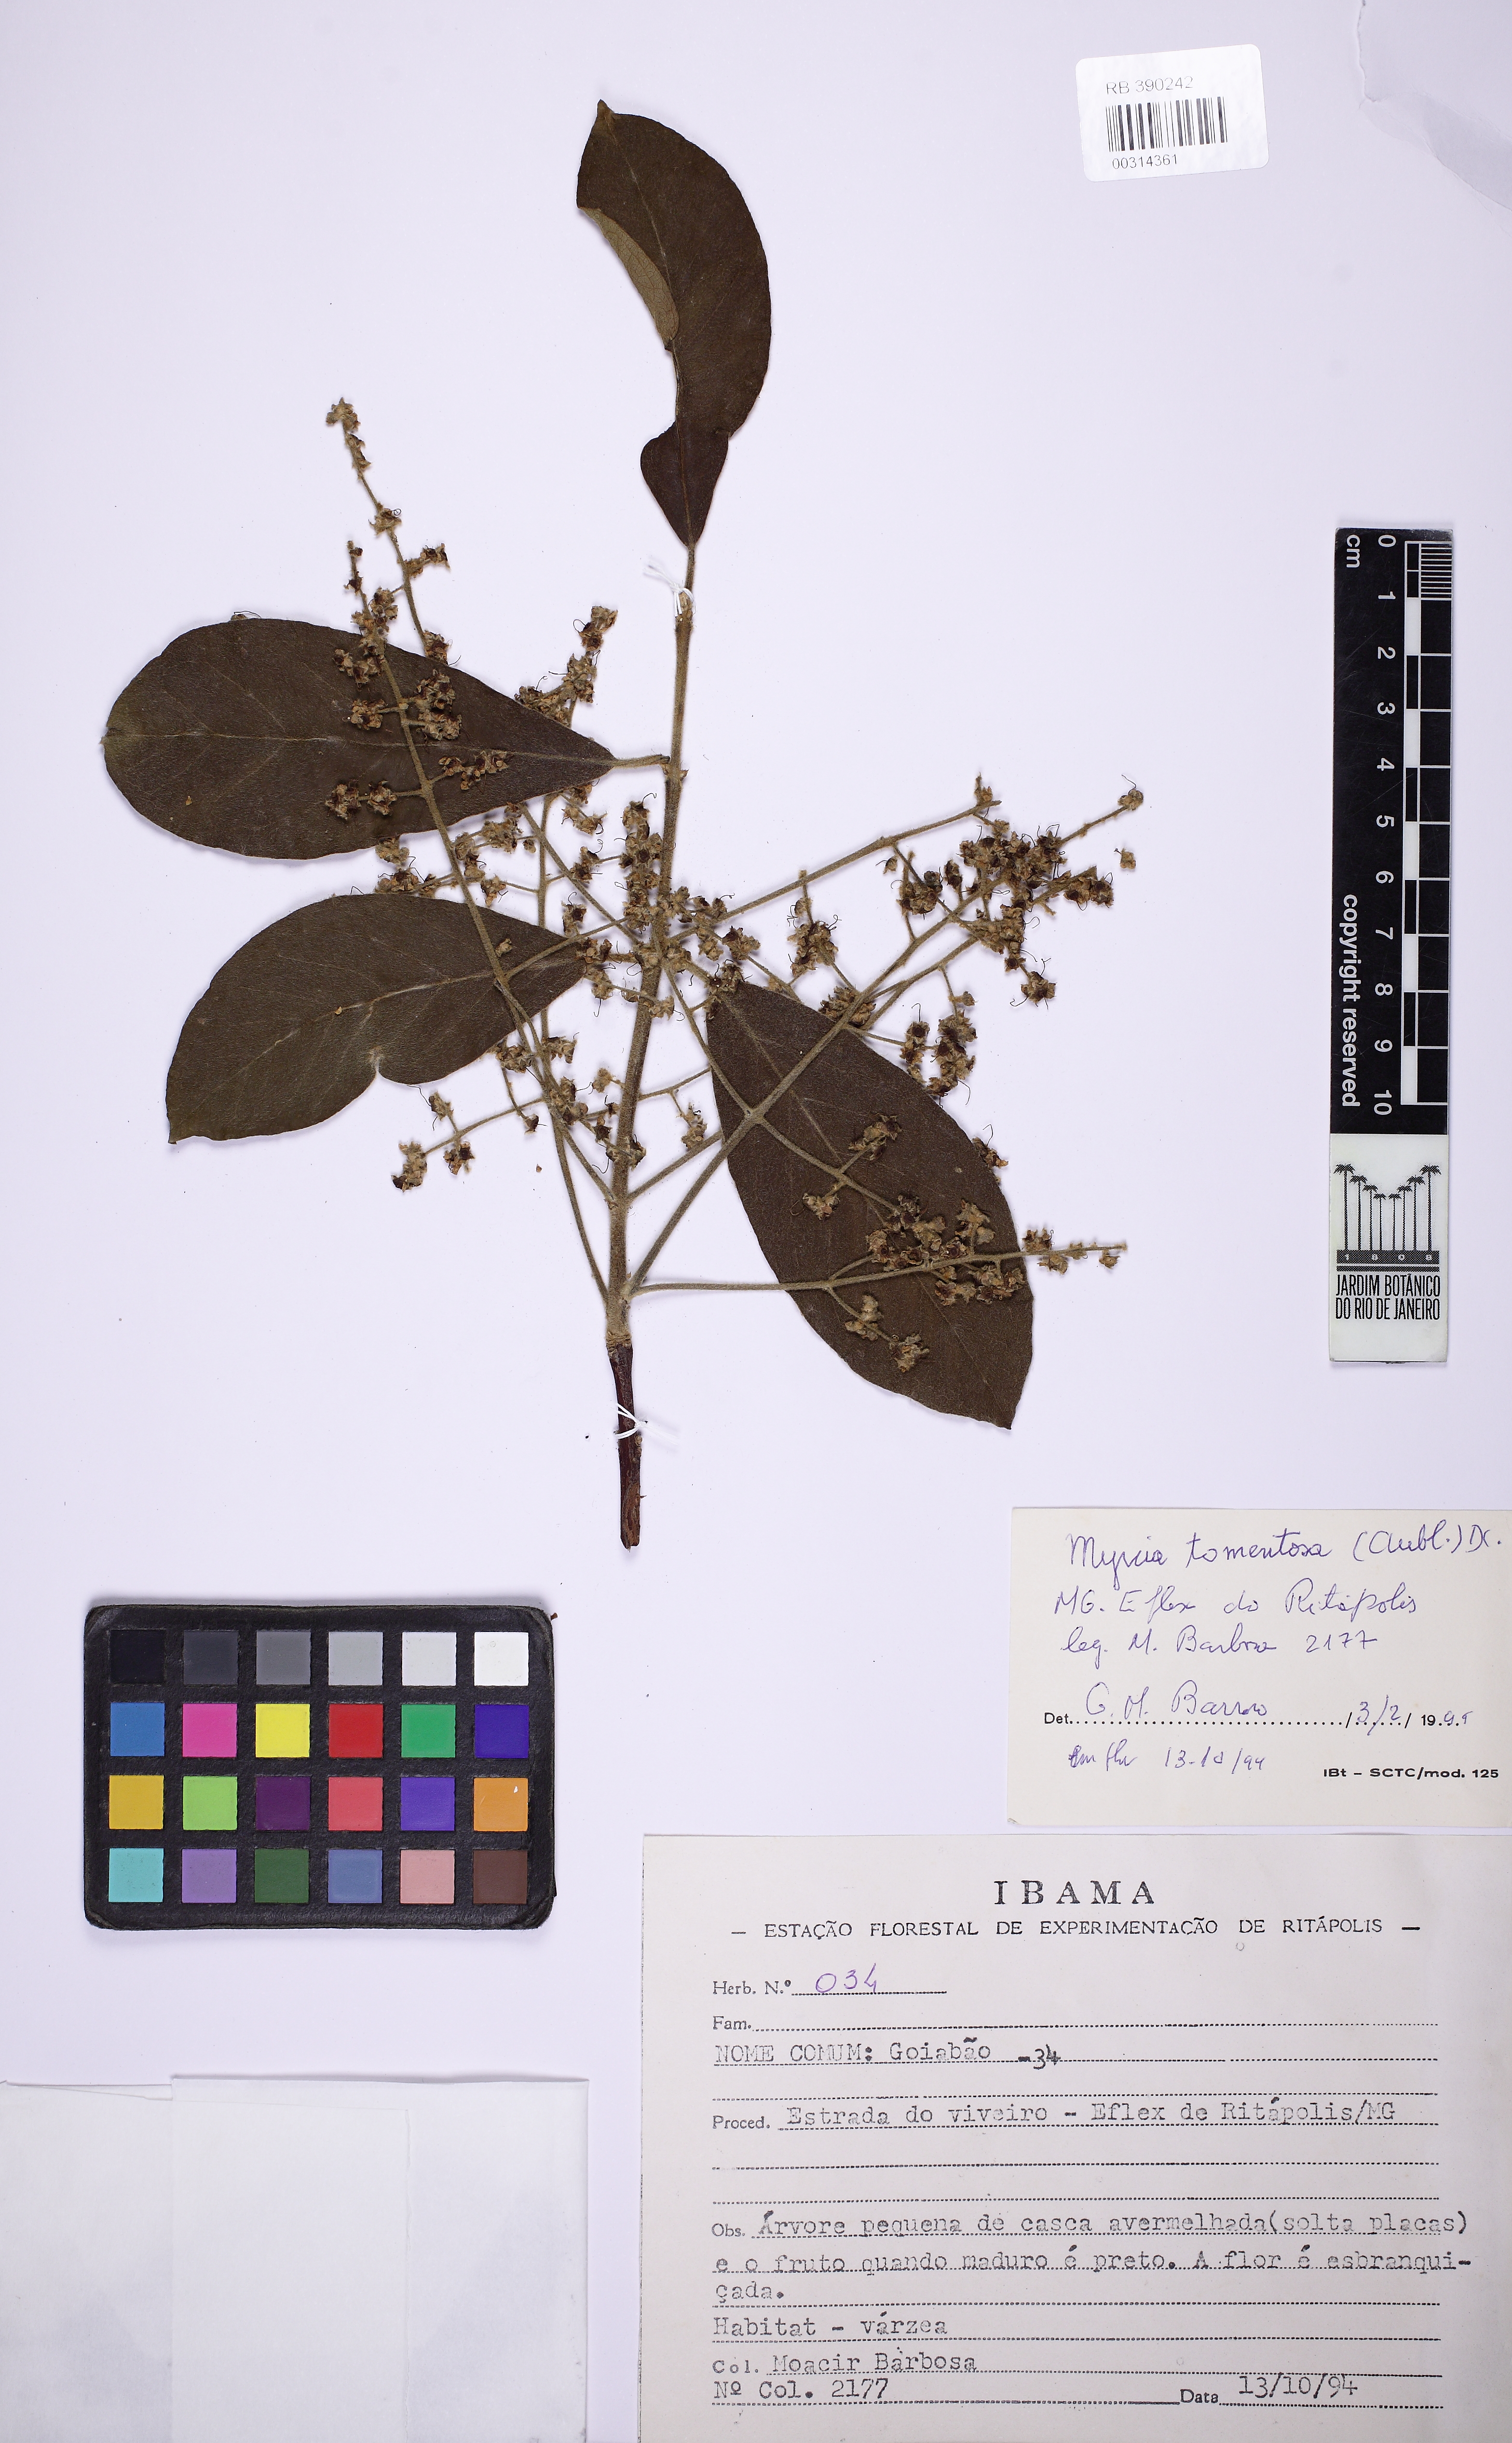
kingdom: Plantae
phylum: Tracheophyta
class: Magnoliopsida
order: Myrtales
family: Myrtaceae
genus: Myrcia
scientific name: Myrcia tomentosa
